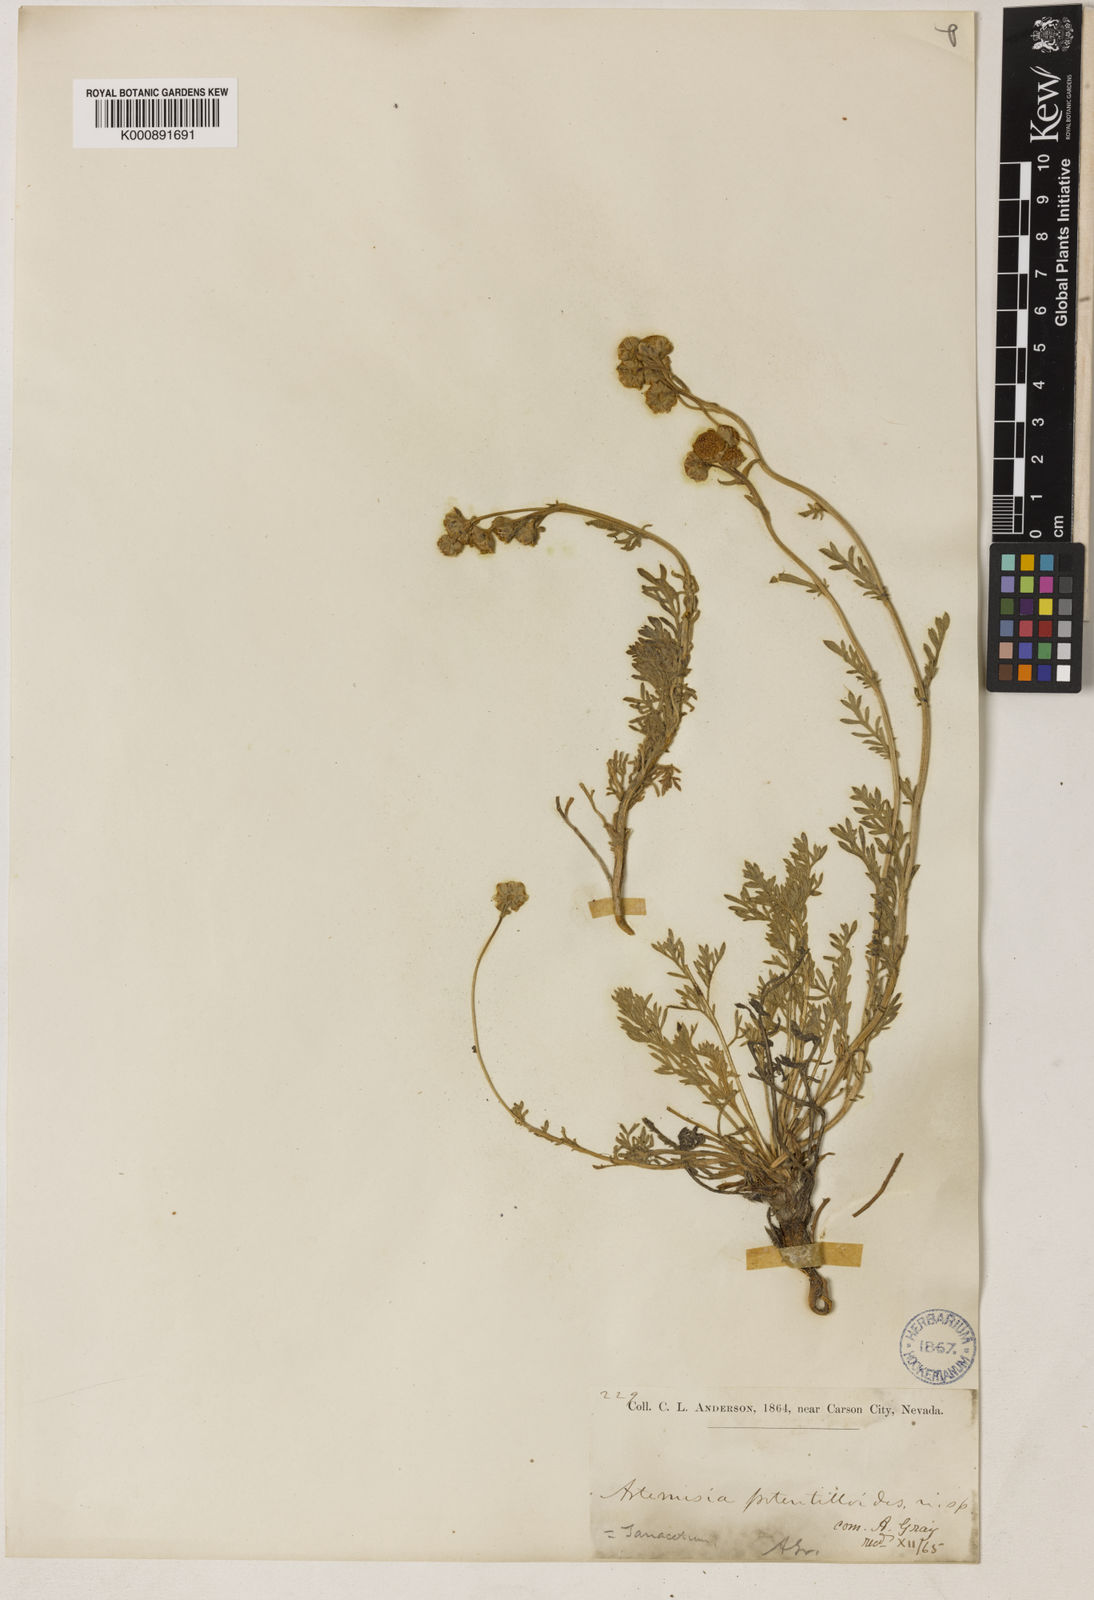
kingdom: Plantae
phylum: Tracheophyta
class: Magnoliopsida
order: Asterales
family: Asteraceae
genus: Artemisia
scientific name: Artemisia potentilloides
